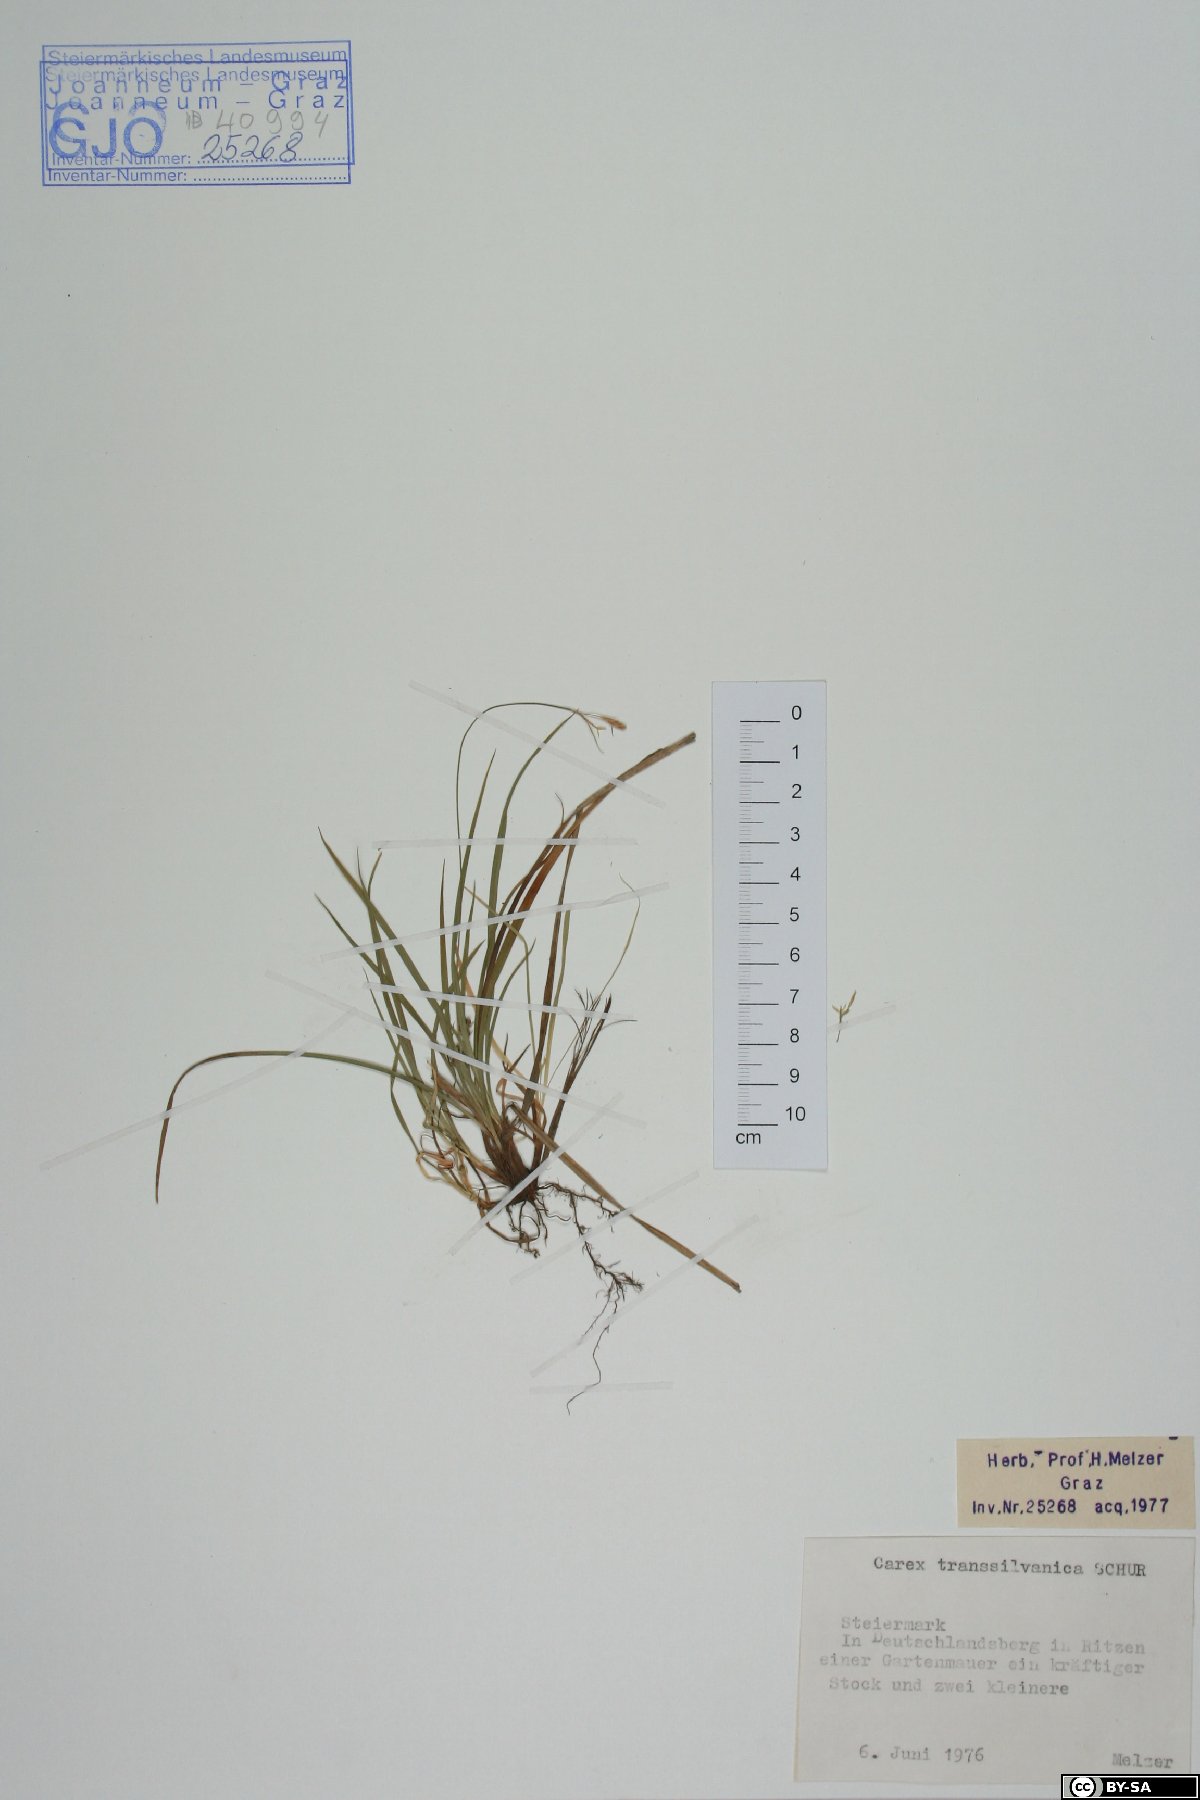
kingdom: Plantae
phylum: Tracheophyta
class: Liliopsida
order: Poales
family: Cyperaceae
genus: Carex
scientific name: Carex depressa
